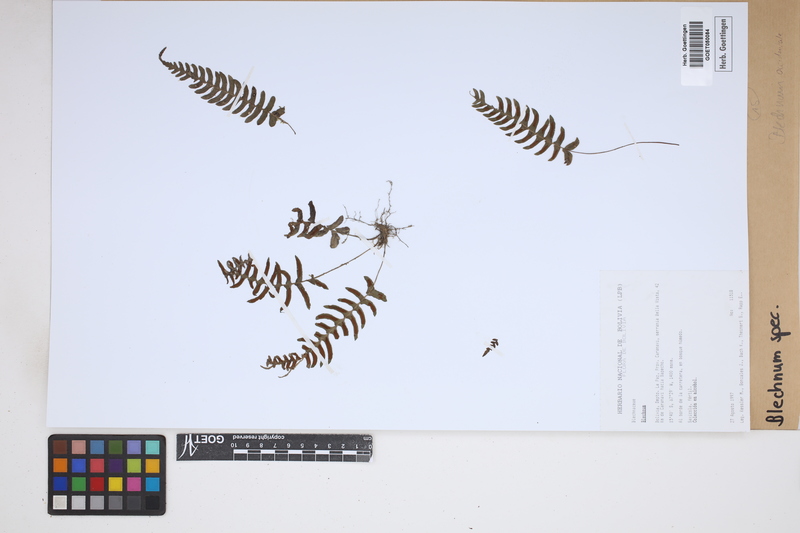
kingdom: Plantae
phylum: Tracheophyta
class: Polypodiopsida
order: Polypodiales
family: Blechnaceae
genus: Blechnum
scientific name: Blechnum
